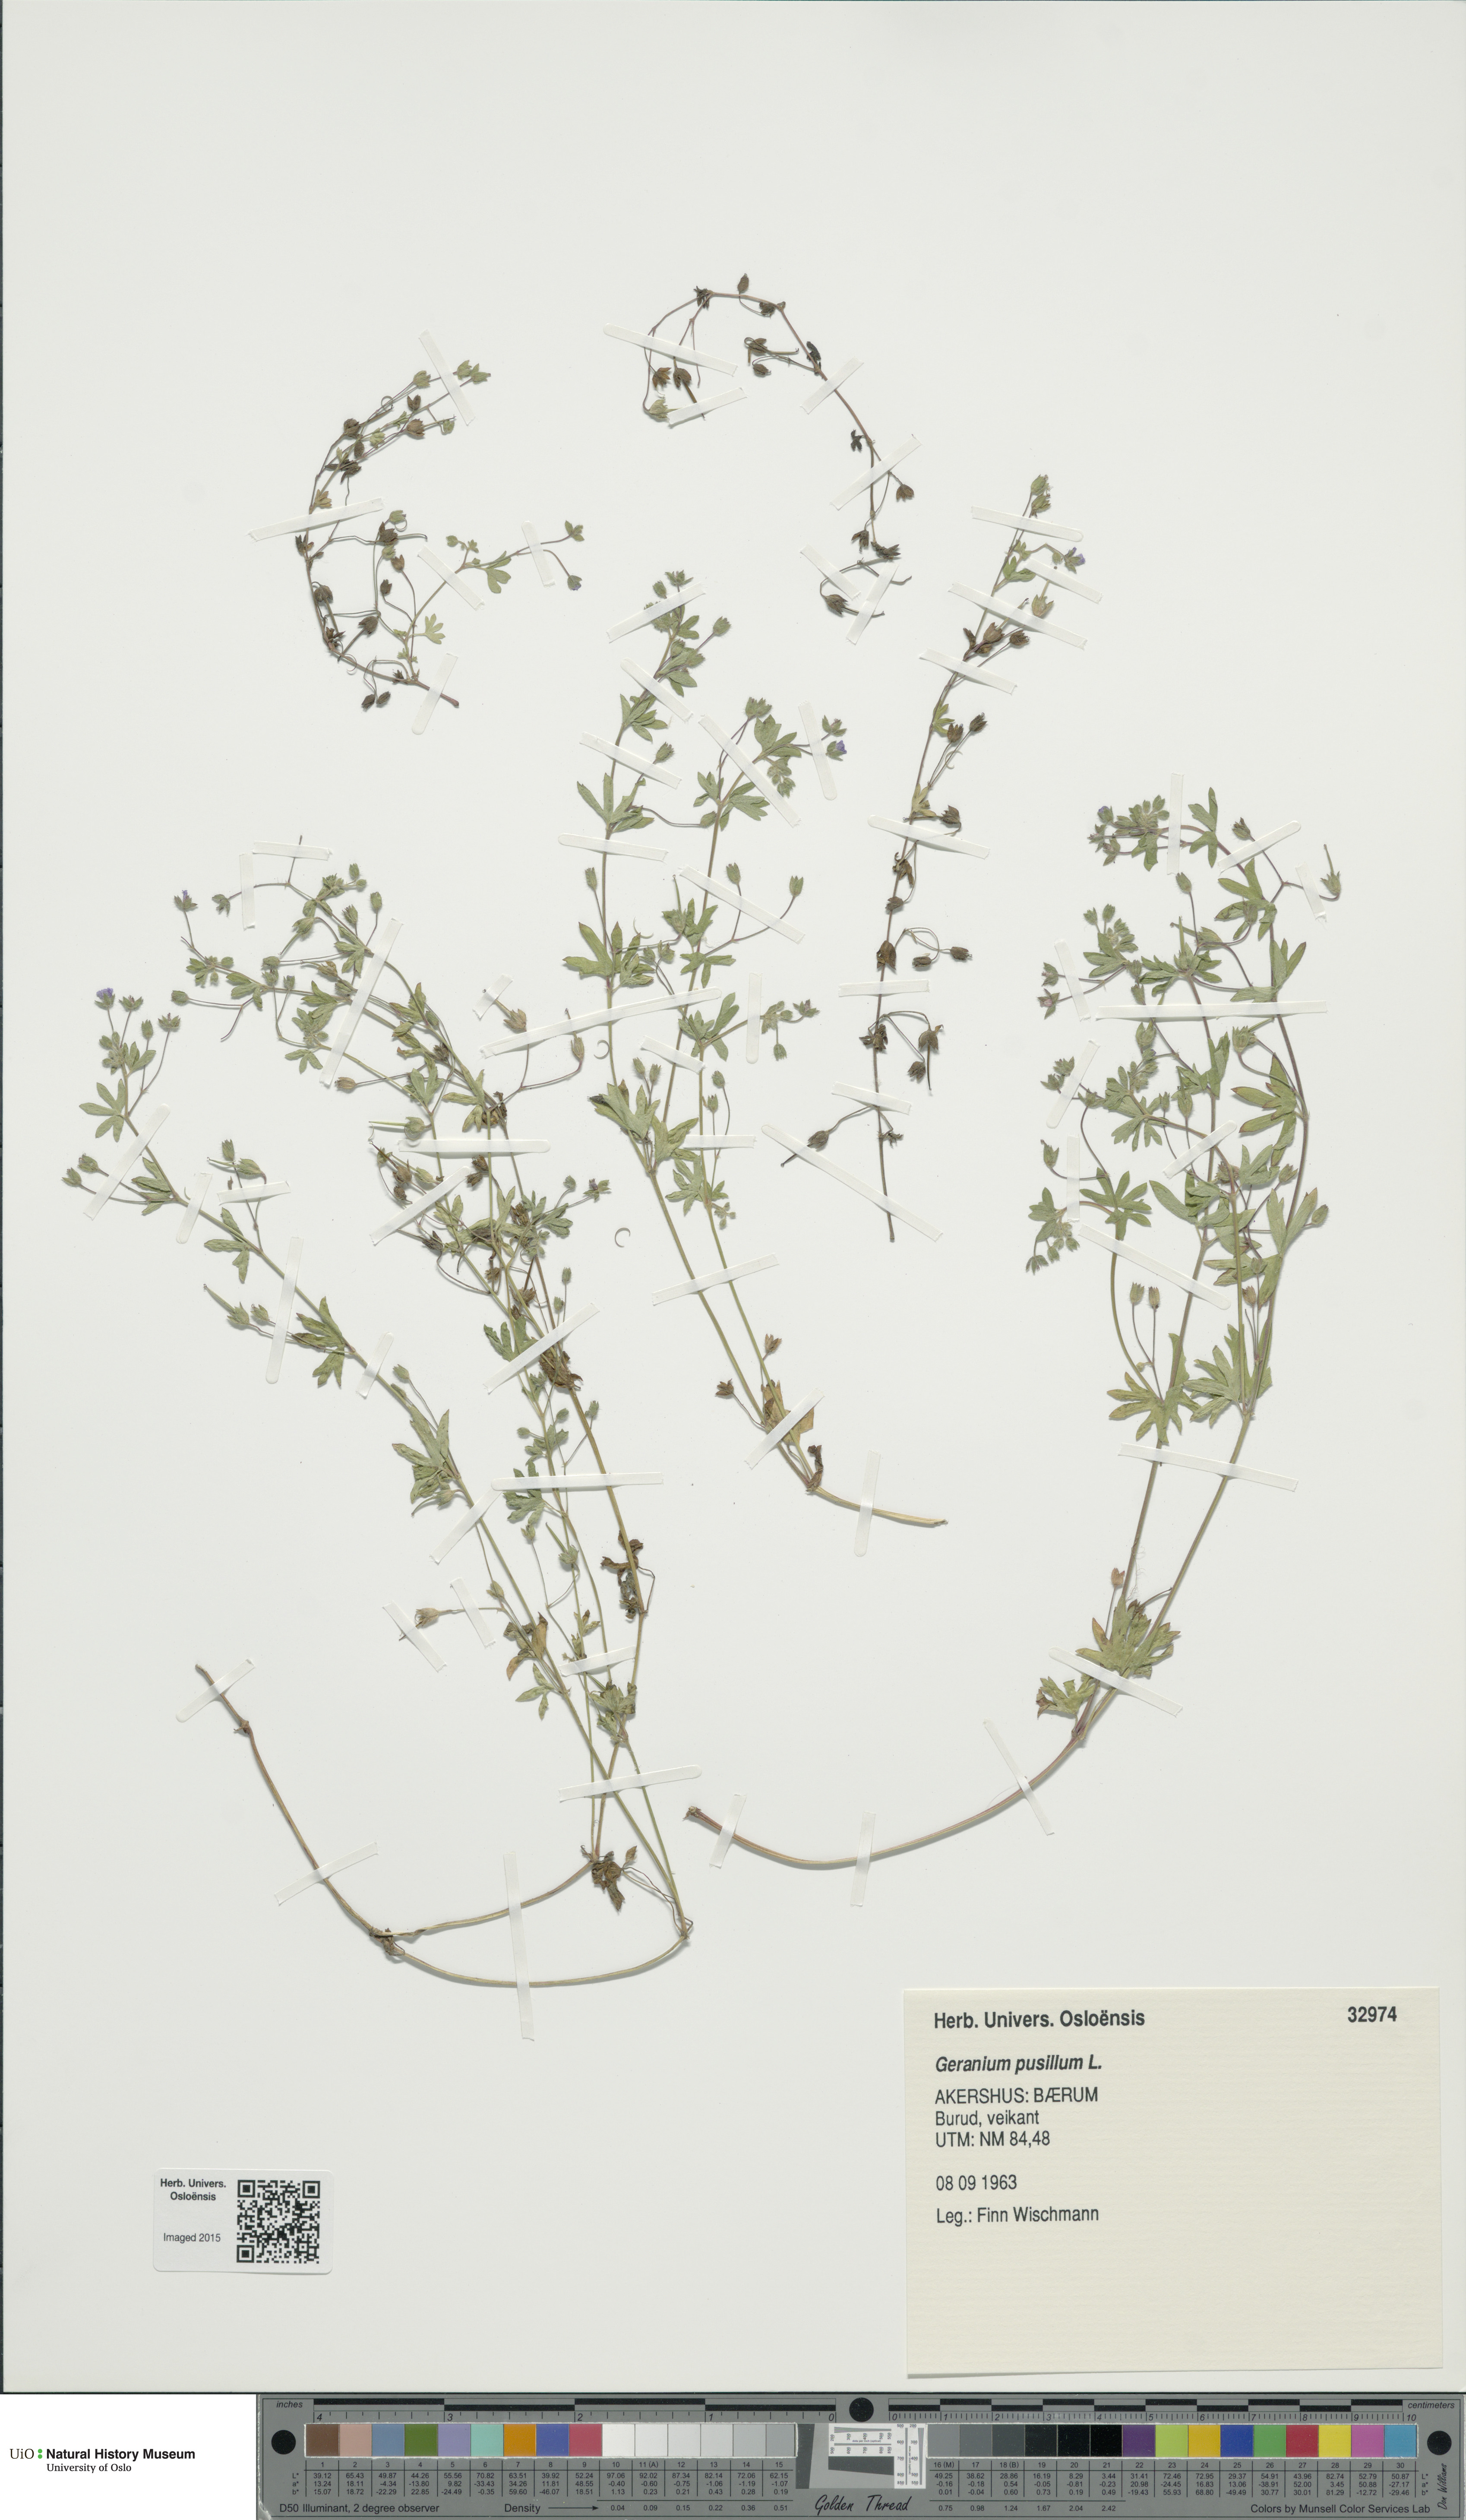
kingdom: Plantae
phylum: Tracheophyta
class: Magnoliopsida
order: Geraniales
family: Geraniaceae
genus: Geranium
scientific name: Geranium pusillum
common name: Small geranium
